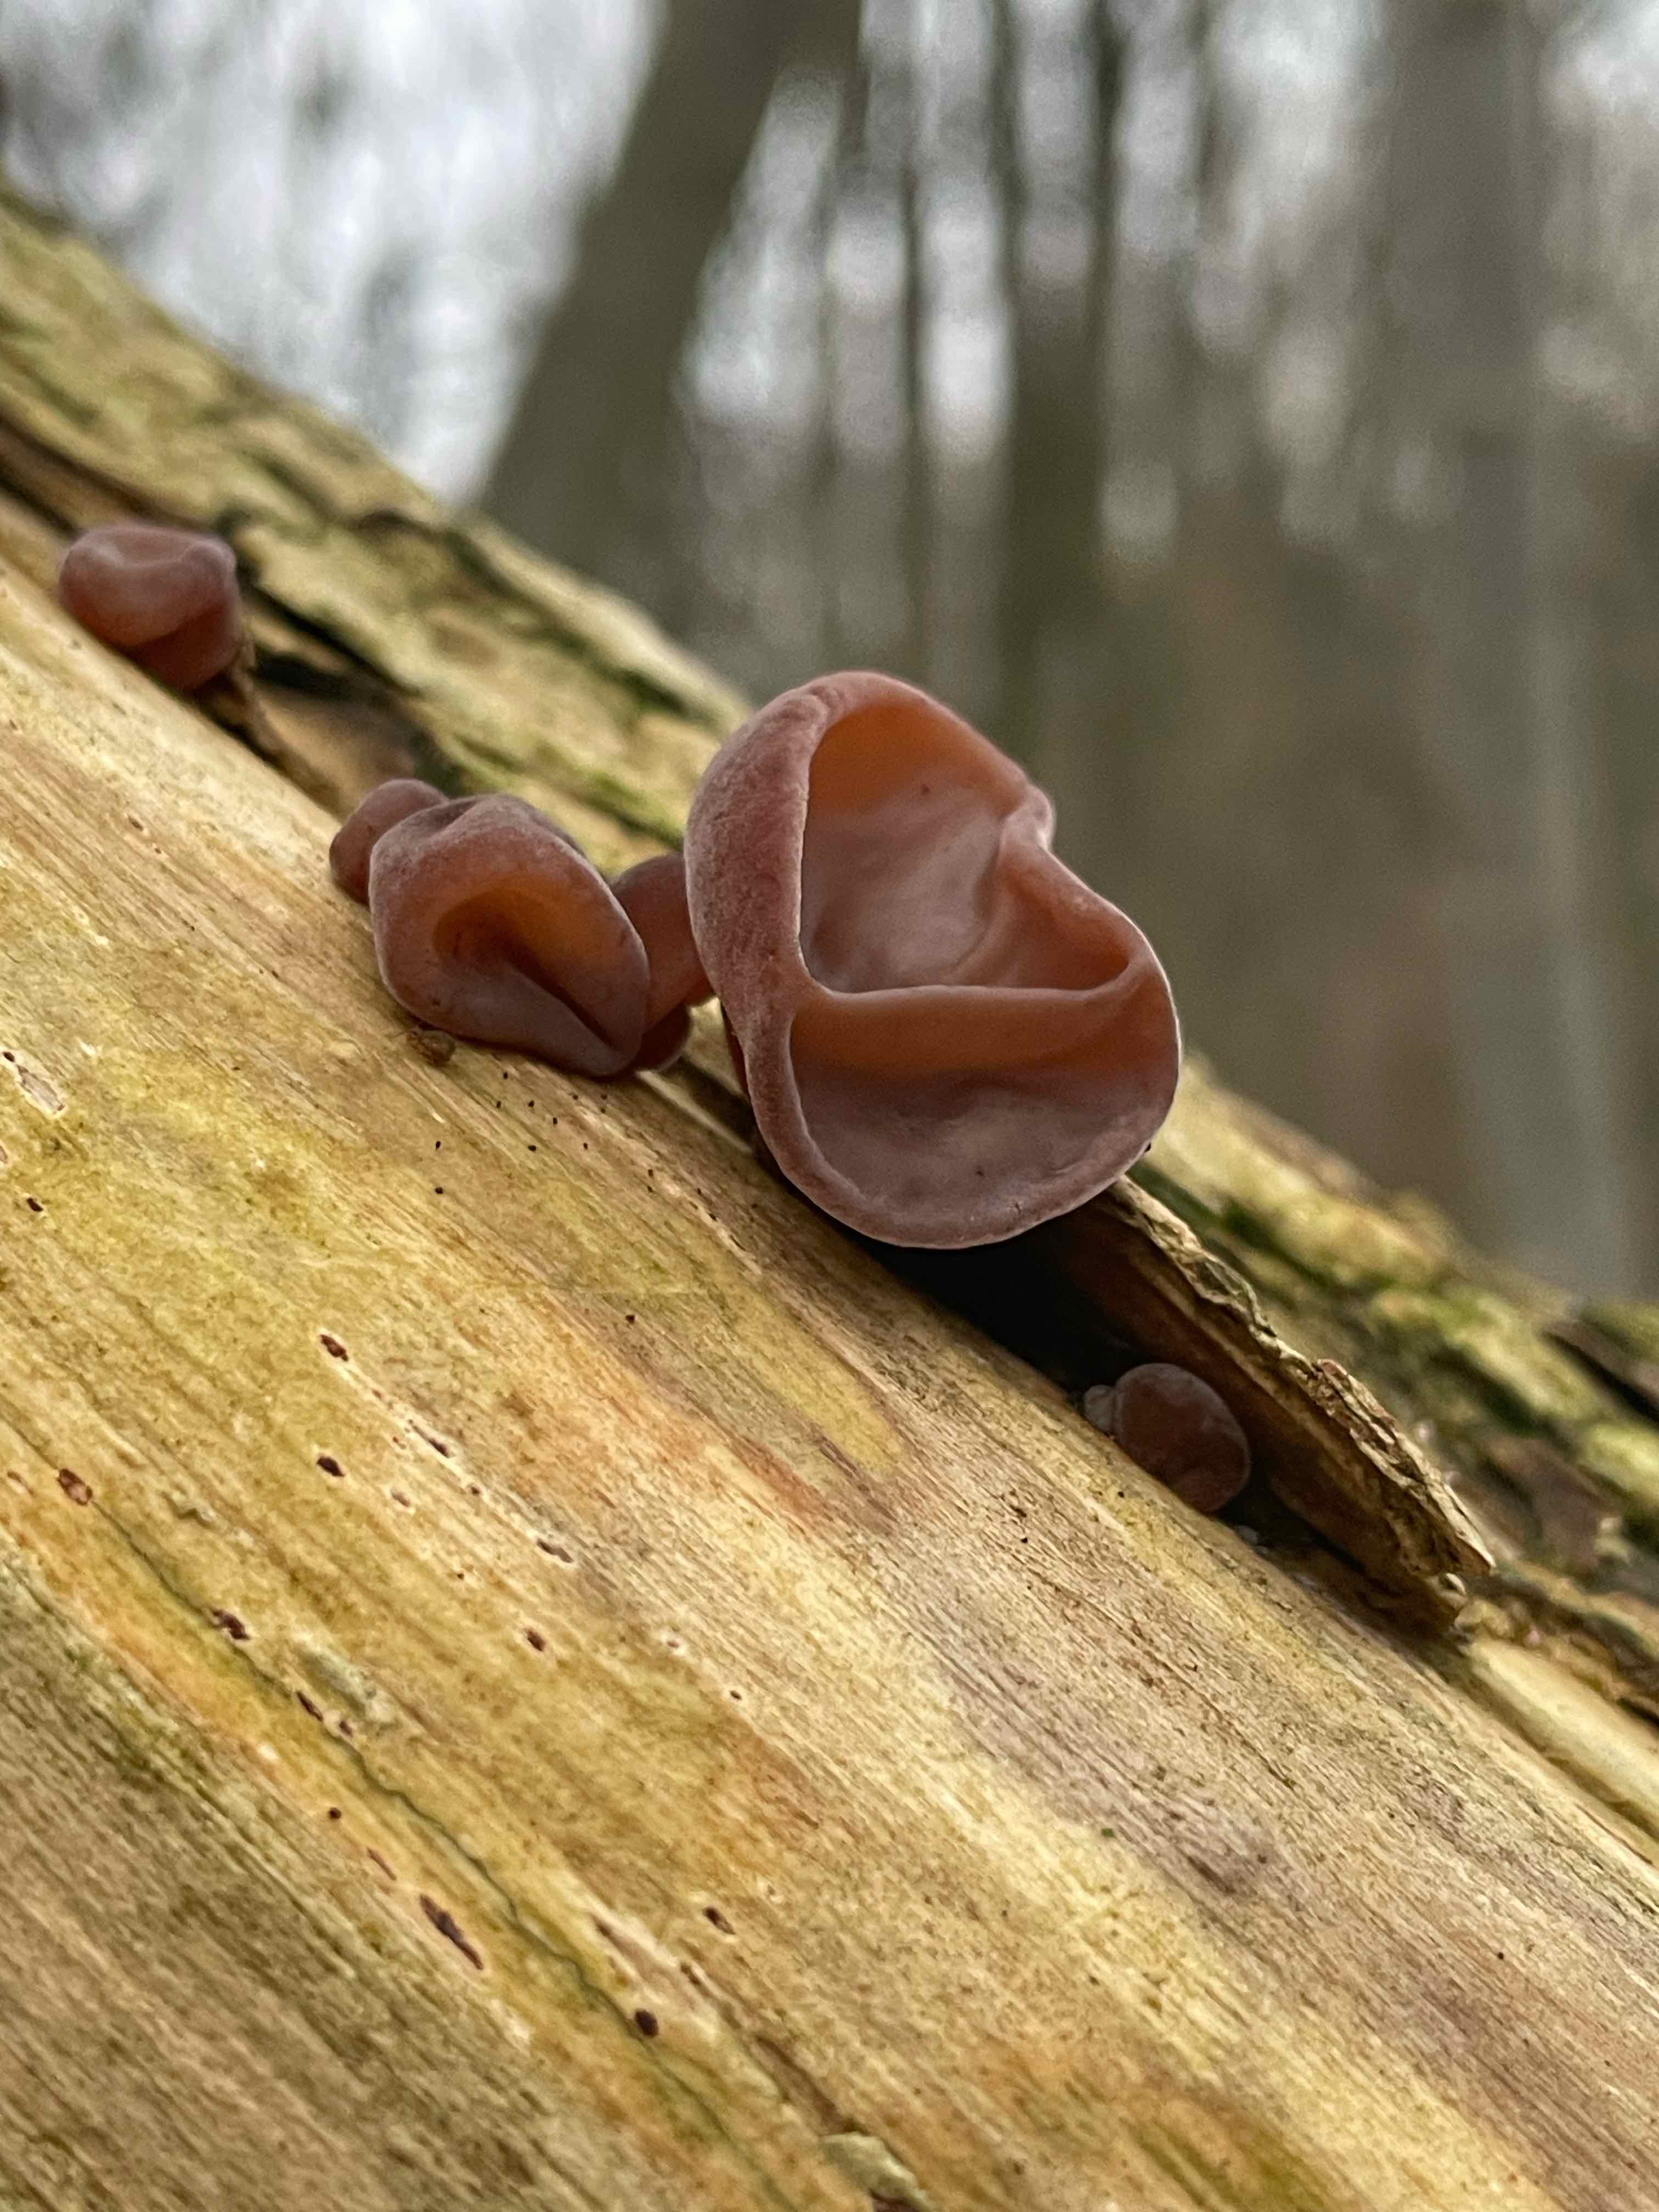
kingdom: Fungi
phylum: Basidiomycota
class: Agaricomycetes
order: Auriculariales
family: Auriculariaceae
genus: Auricularia
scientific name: Auricularia auricula-judae
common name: almindelig judasøre
